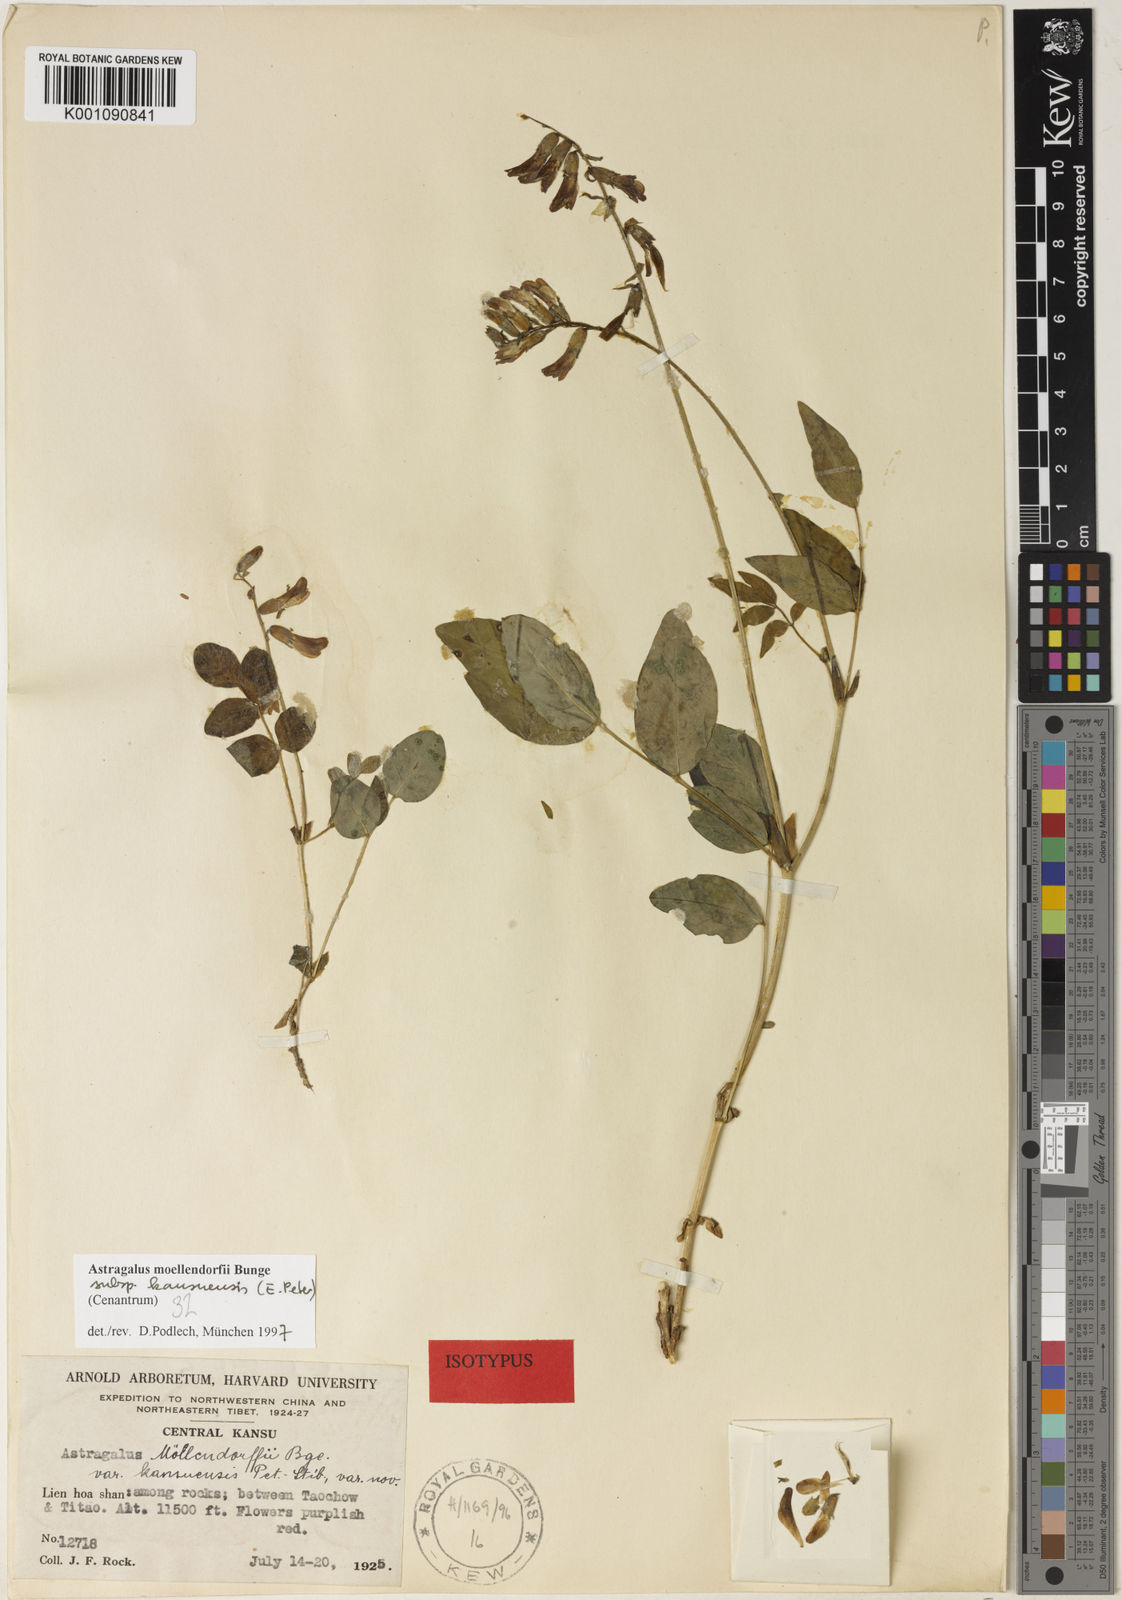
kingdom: Plantae
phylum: Tracheophyta
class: Magnoliopsida
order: Fabales
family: Fabaceae
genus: Astragalus
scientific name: Astragalus
